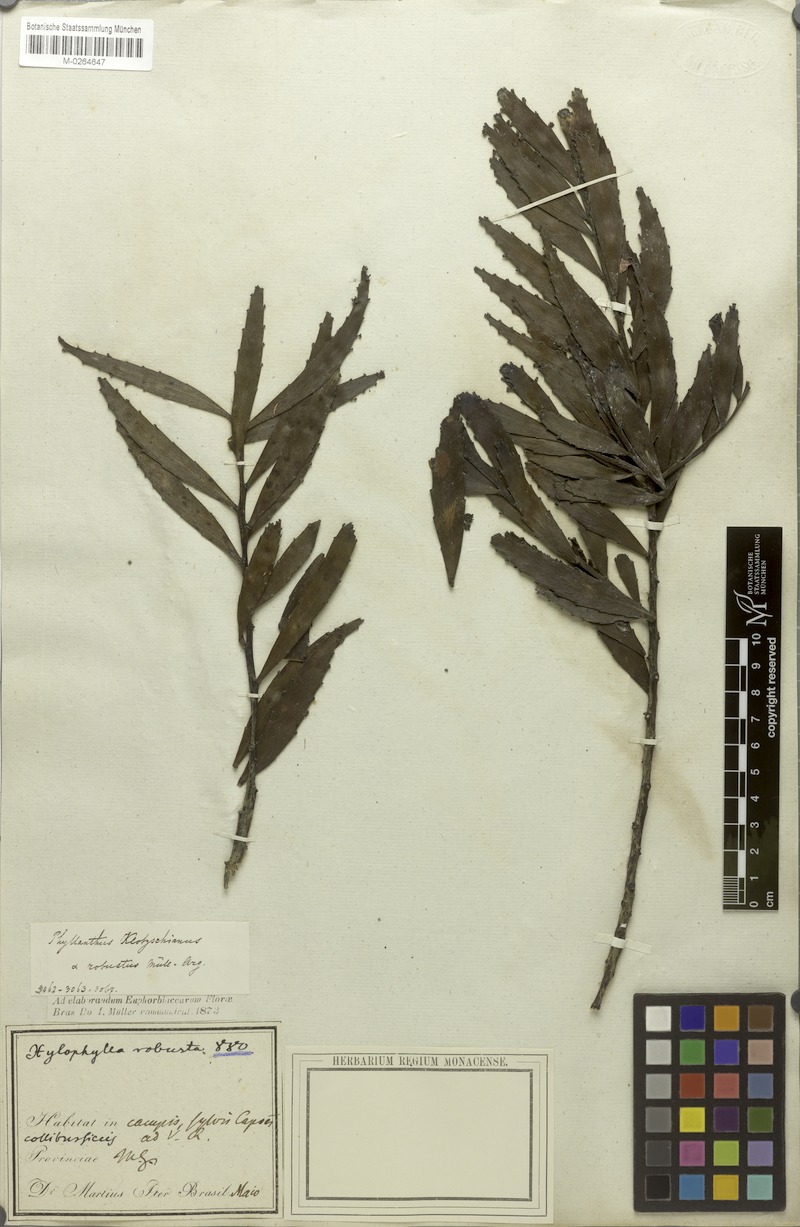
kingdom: Plantae
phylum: Tracheophyta
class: Magnoliopsida
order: Malpighiales
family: Phyllanthaceae
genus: Phyllanthus
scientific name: Phyllanthus robustus
